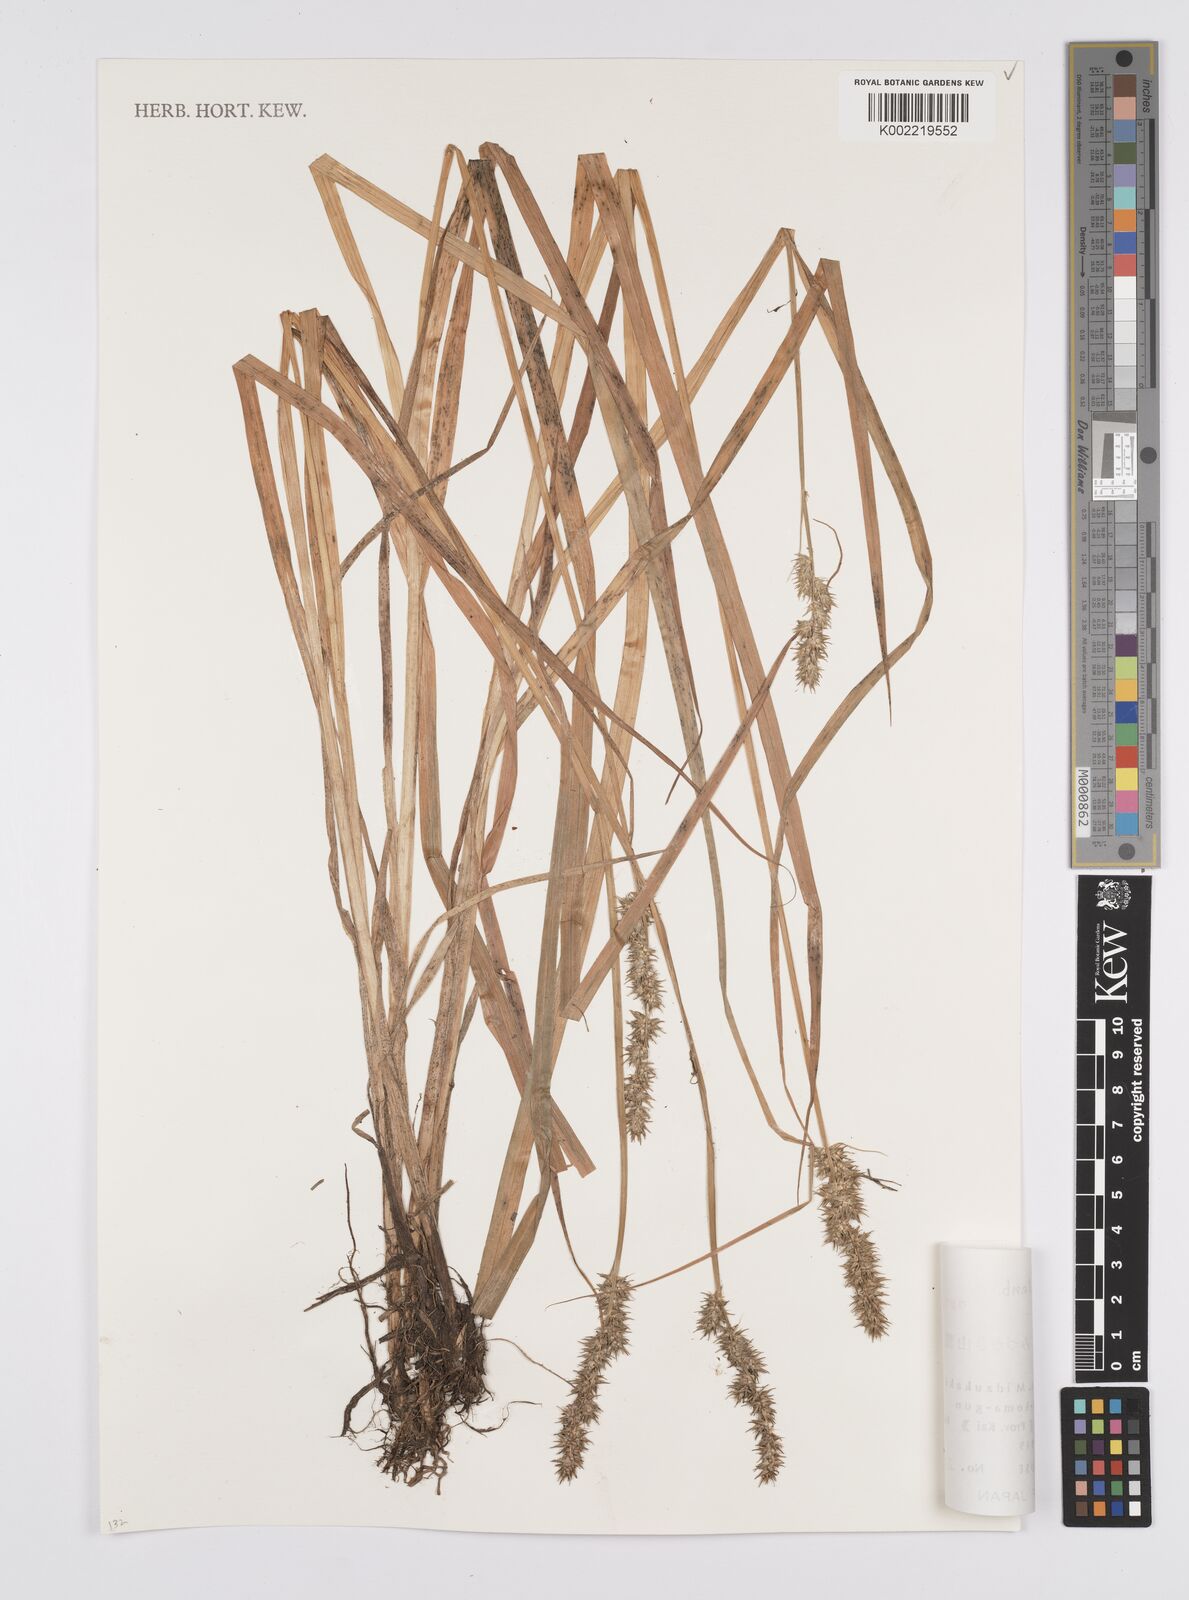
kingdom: Plantae
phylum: Tracheophyta
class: Liliopsida
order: Poales
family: Cyperaceae
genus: Carex
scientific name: Carex stipata
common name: Awl-fruited sedge
